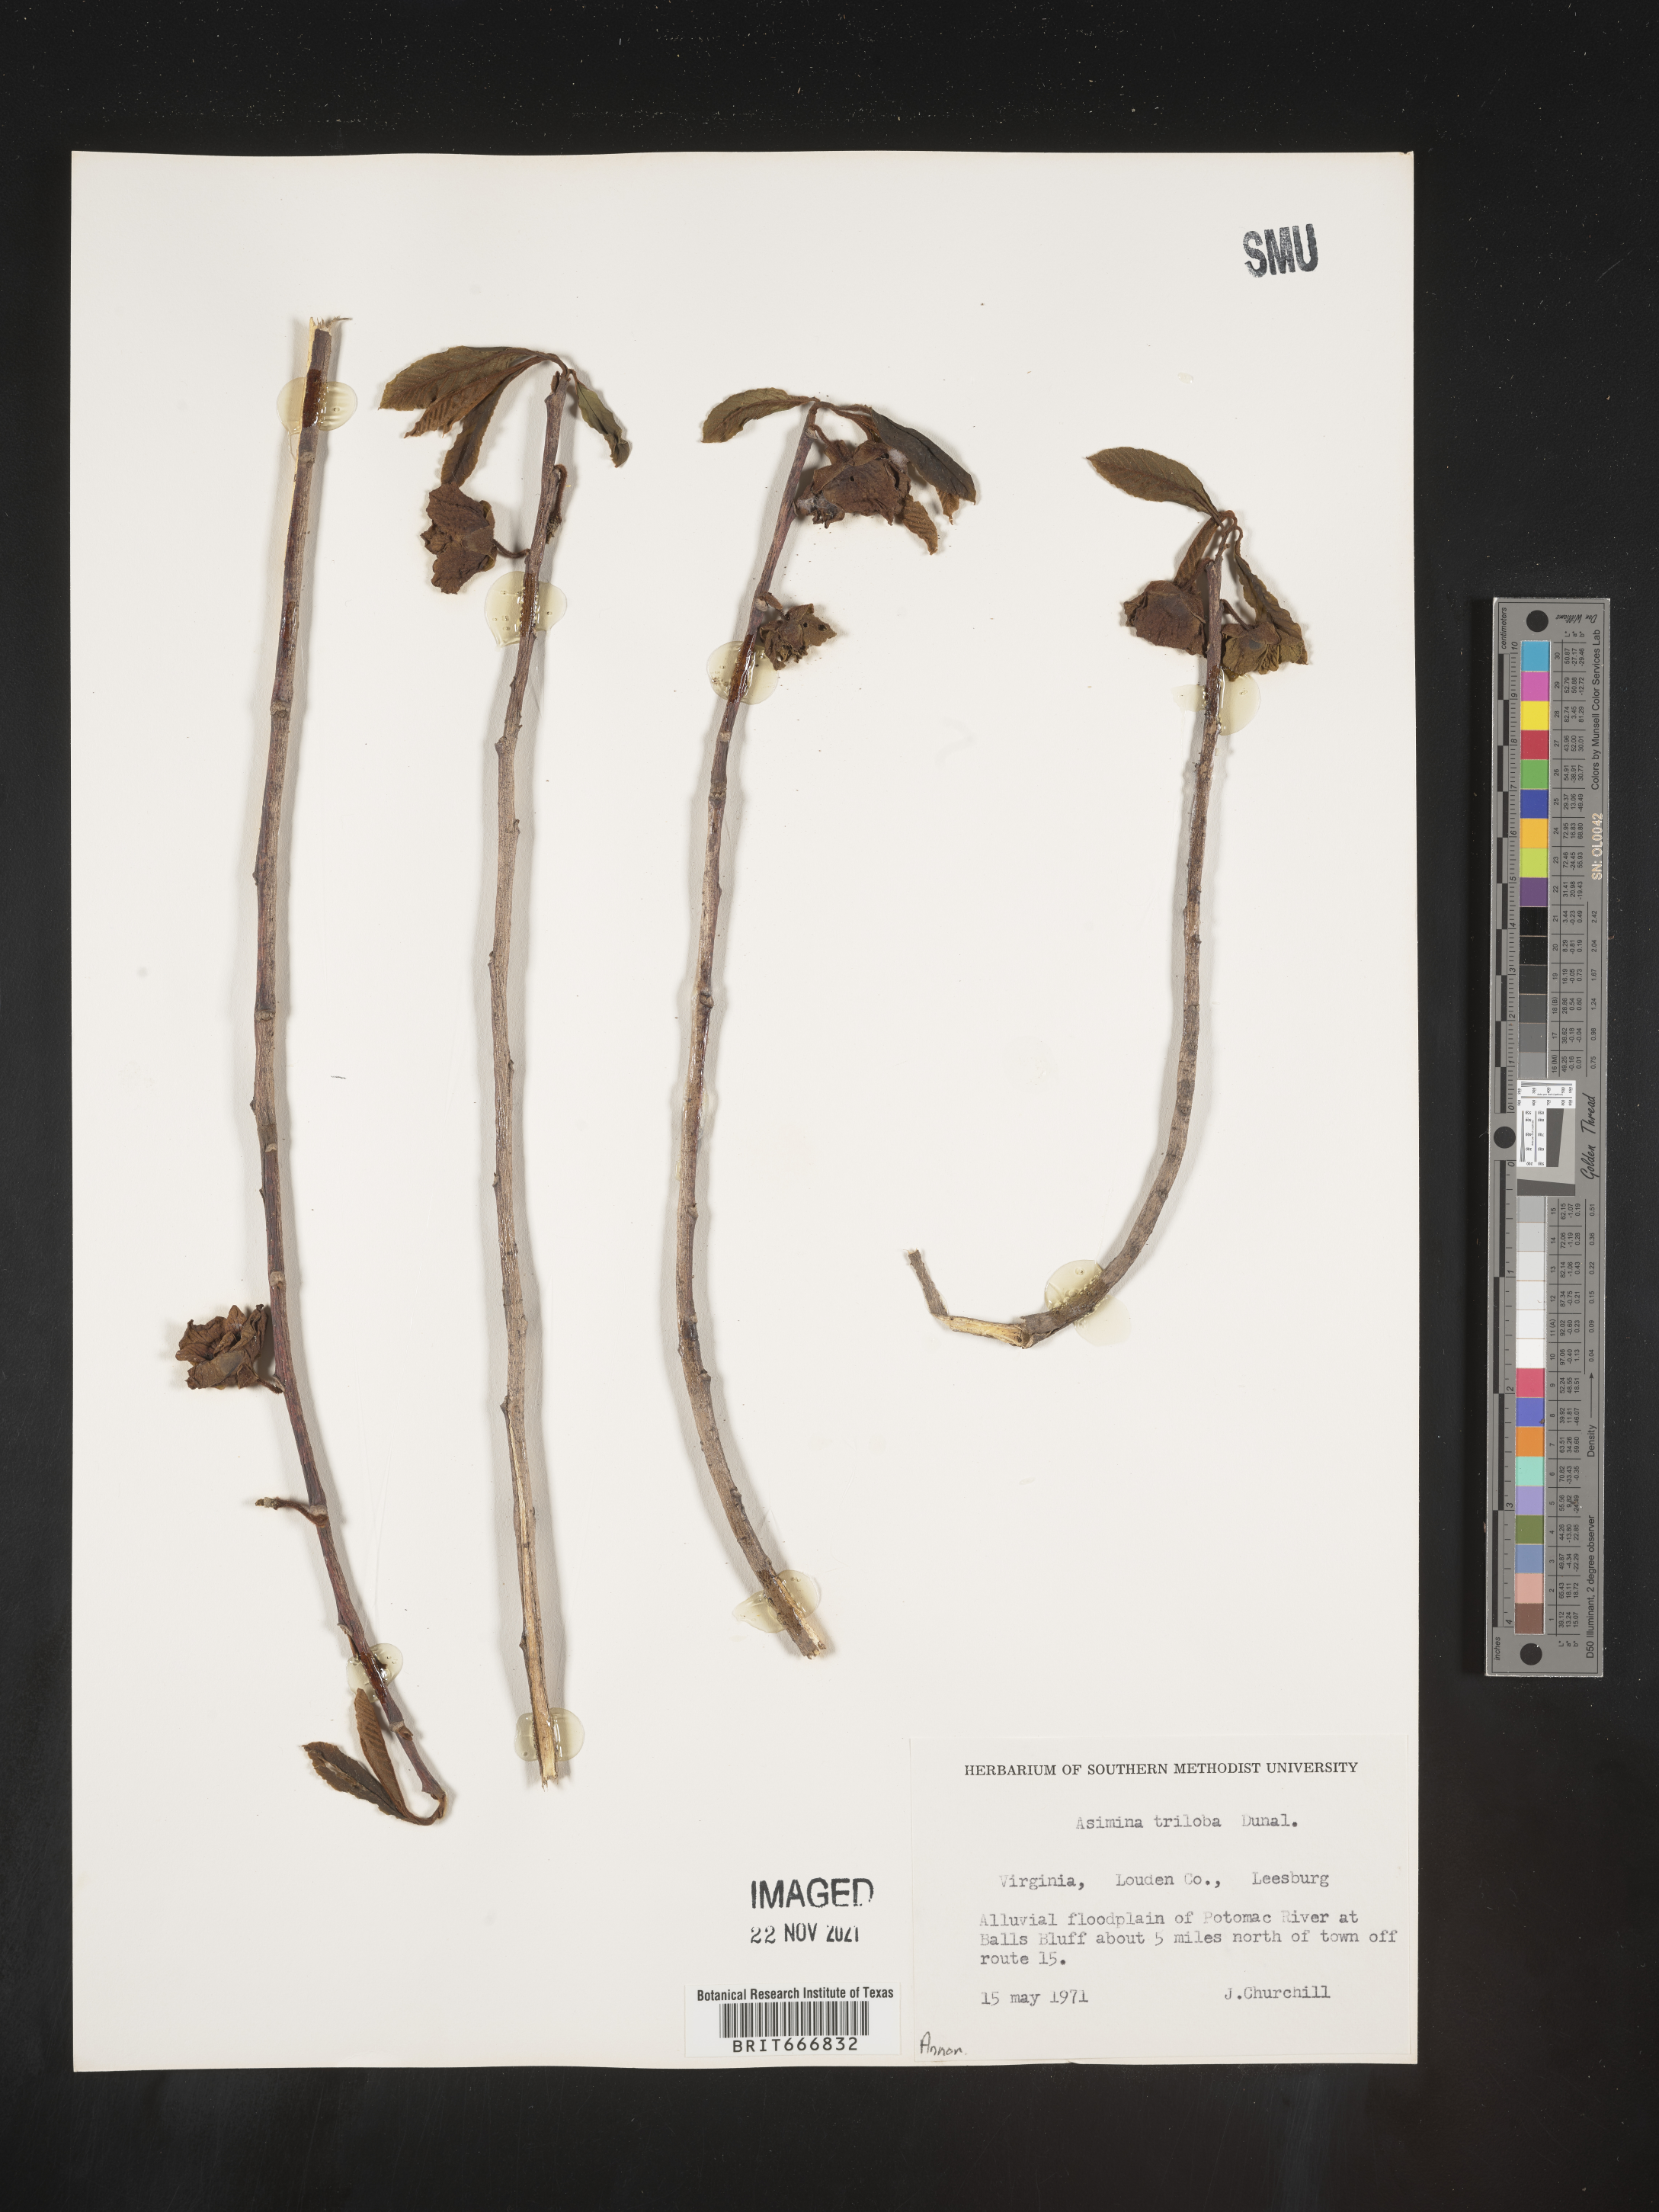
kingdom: Plantae
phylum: Tracheophyta
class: Magnoliopsida
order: Magnoliales
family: Annonaceae
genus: Asimina
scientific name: Asimina triloba
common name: Dog-banana
